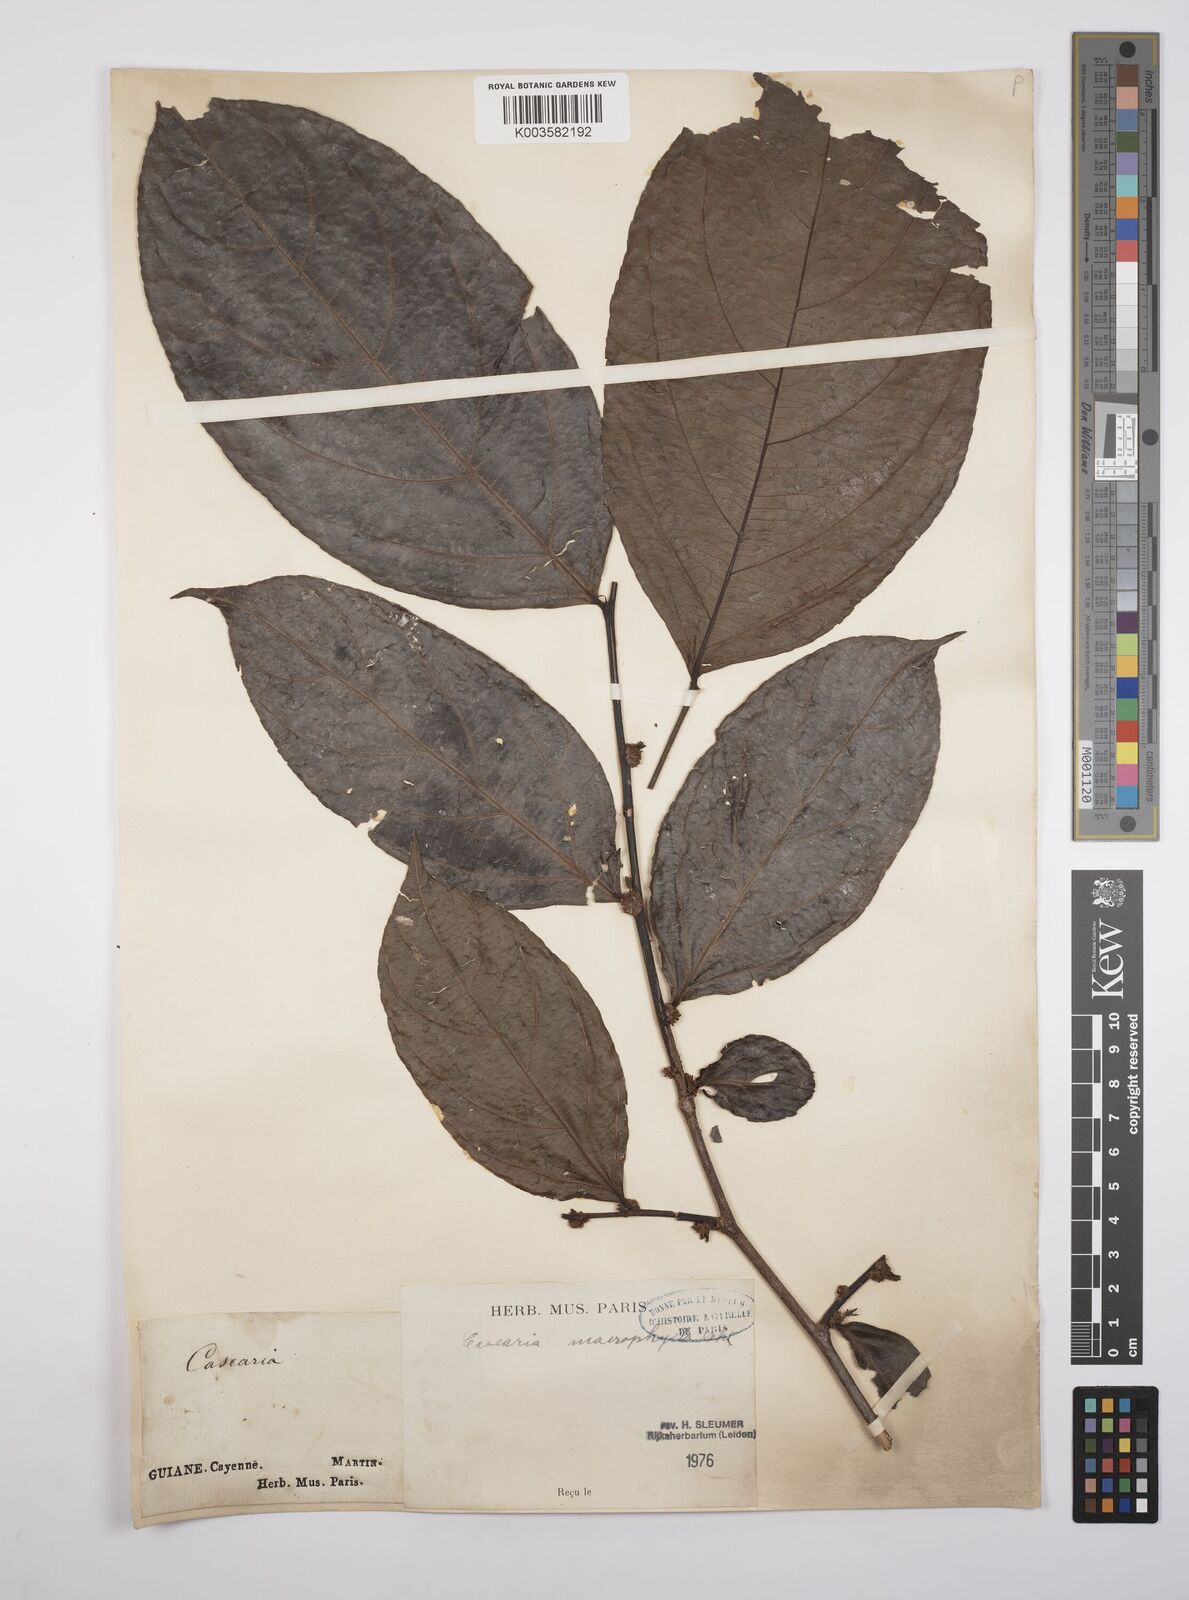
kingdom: Plantae
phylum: Tracheophyta
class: Magnoliopsida
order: Malpighiales
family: Salicaceae
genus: Casearia
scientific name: Casearia pitumba
